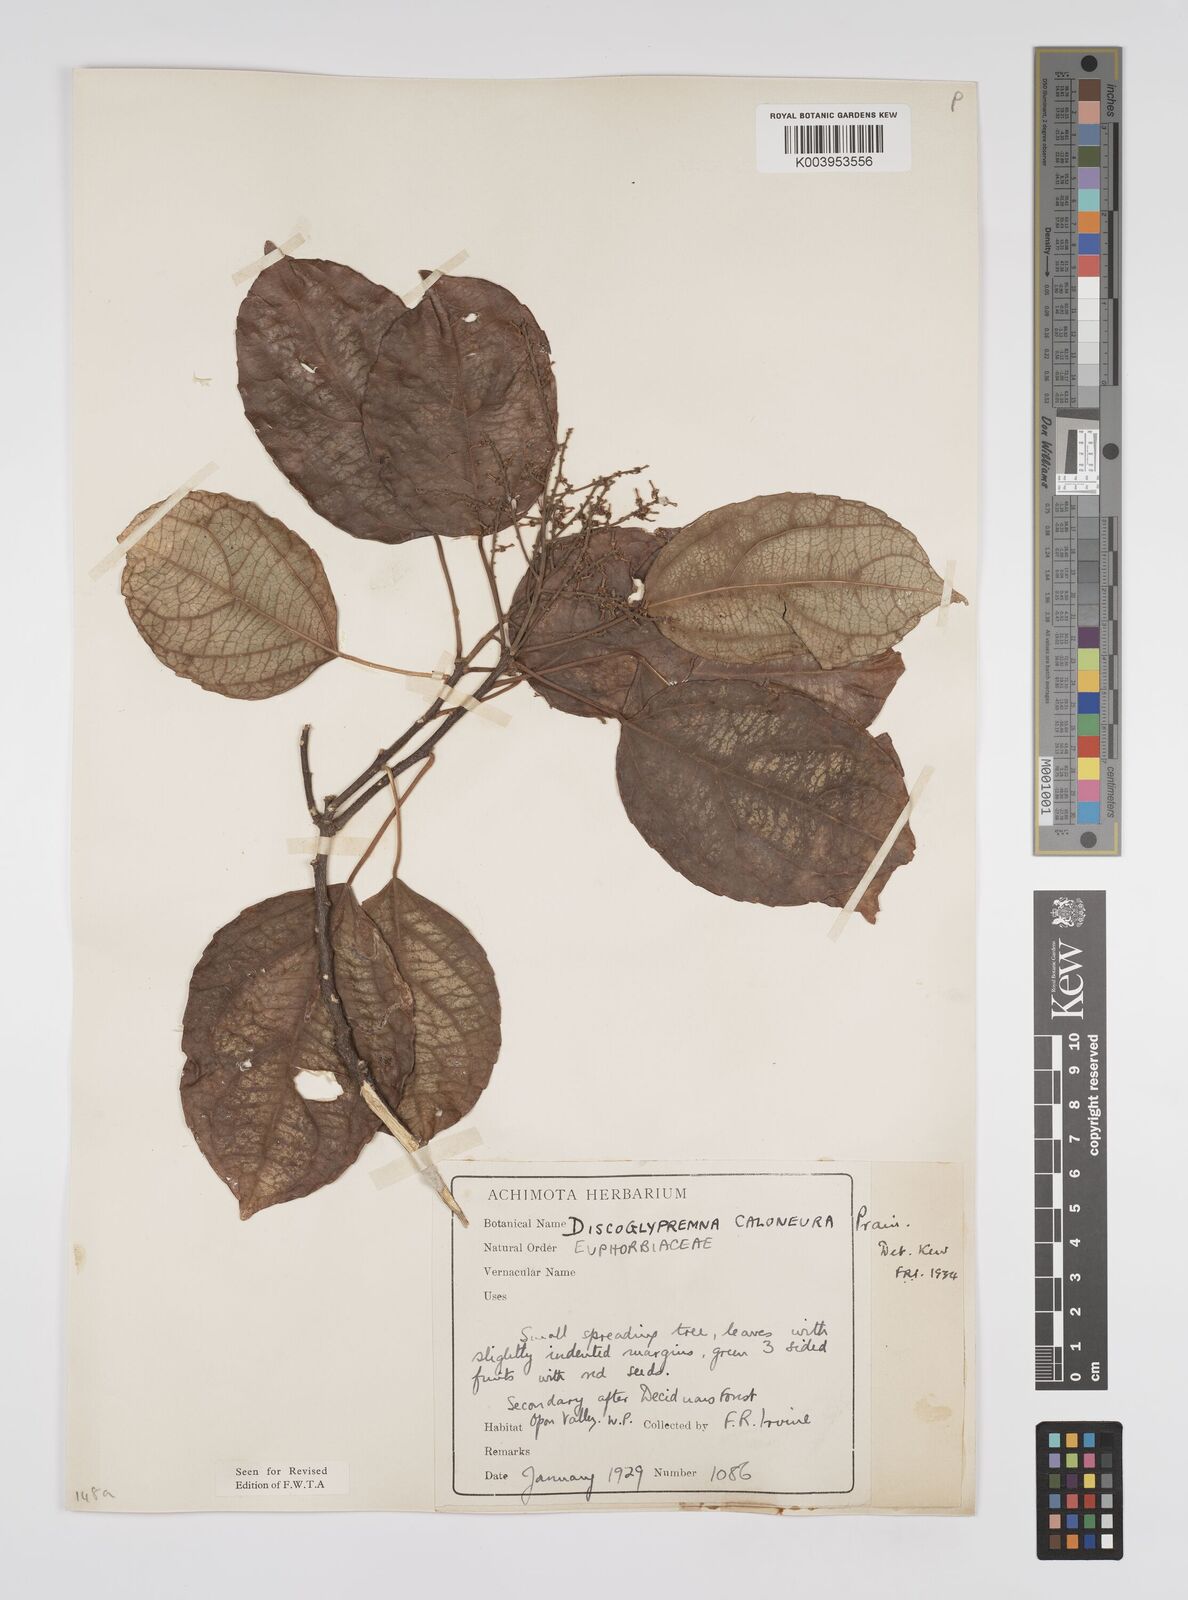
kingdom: Plantae
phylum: Tracheophyta
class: Magnoliopsida
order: Malpighiales
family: Euphorbiaceae
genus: Discoglypremna
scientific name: Discoglypremna caloneura
